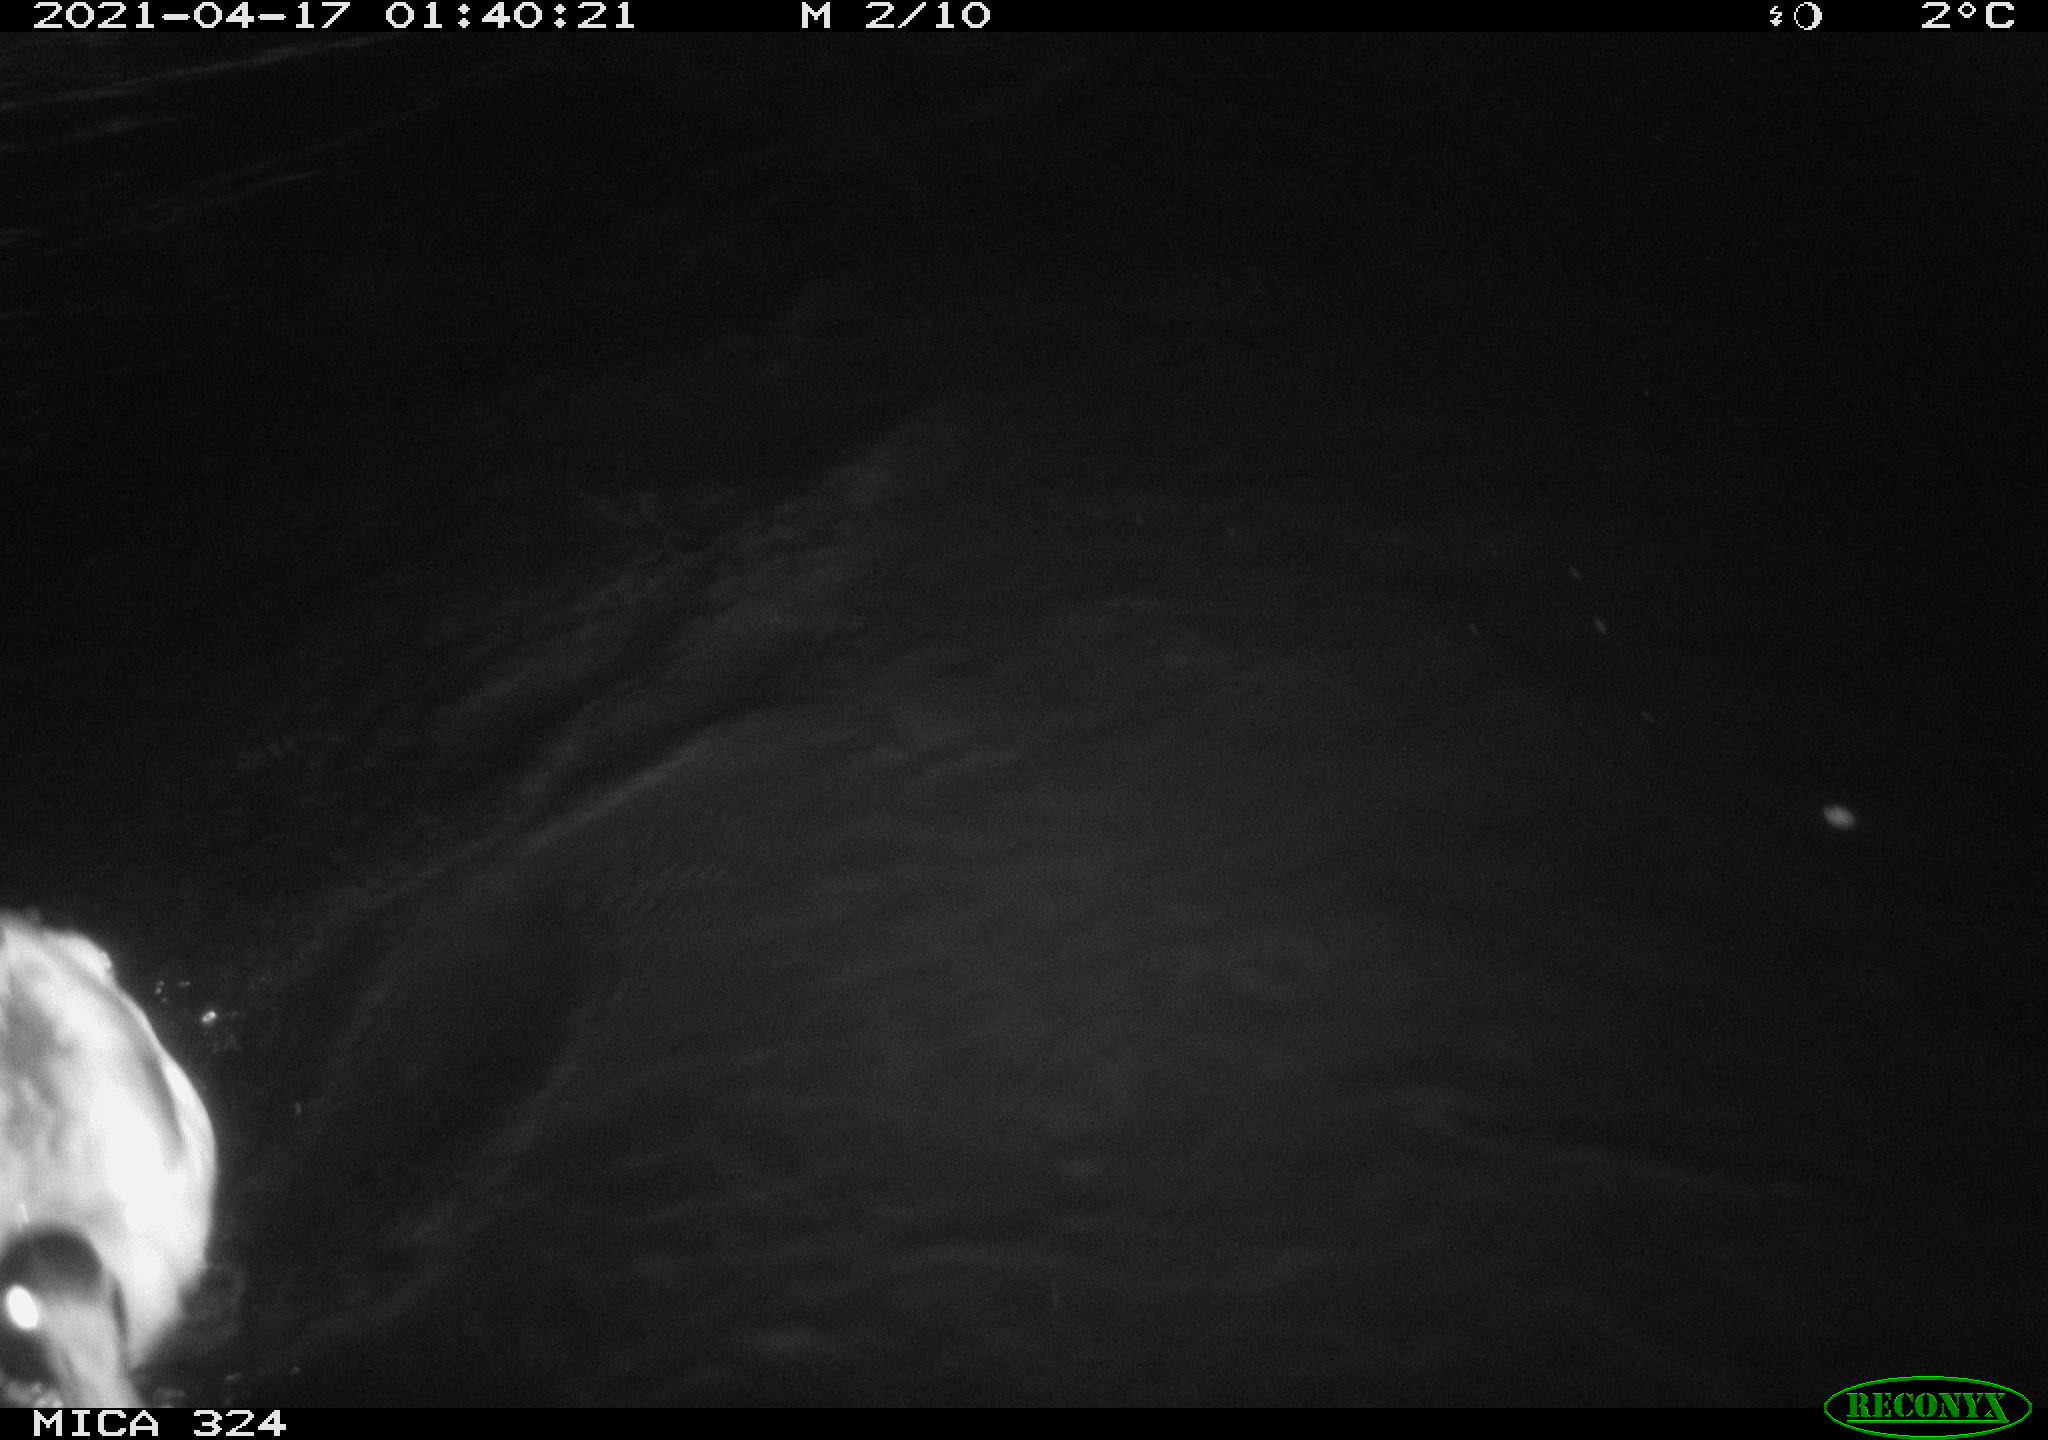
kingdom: Animalia
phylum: Chordata
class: Aves
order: Anseriformes
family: Anatidae
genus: Anas
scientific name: Anas platyrhynchos
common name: Mallard
